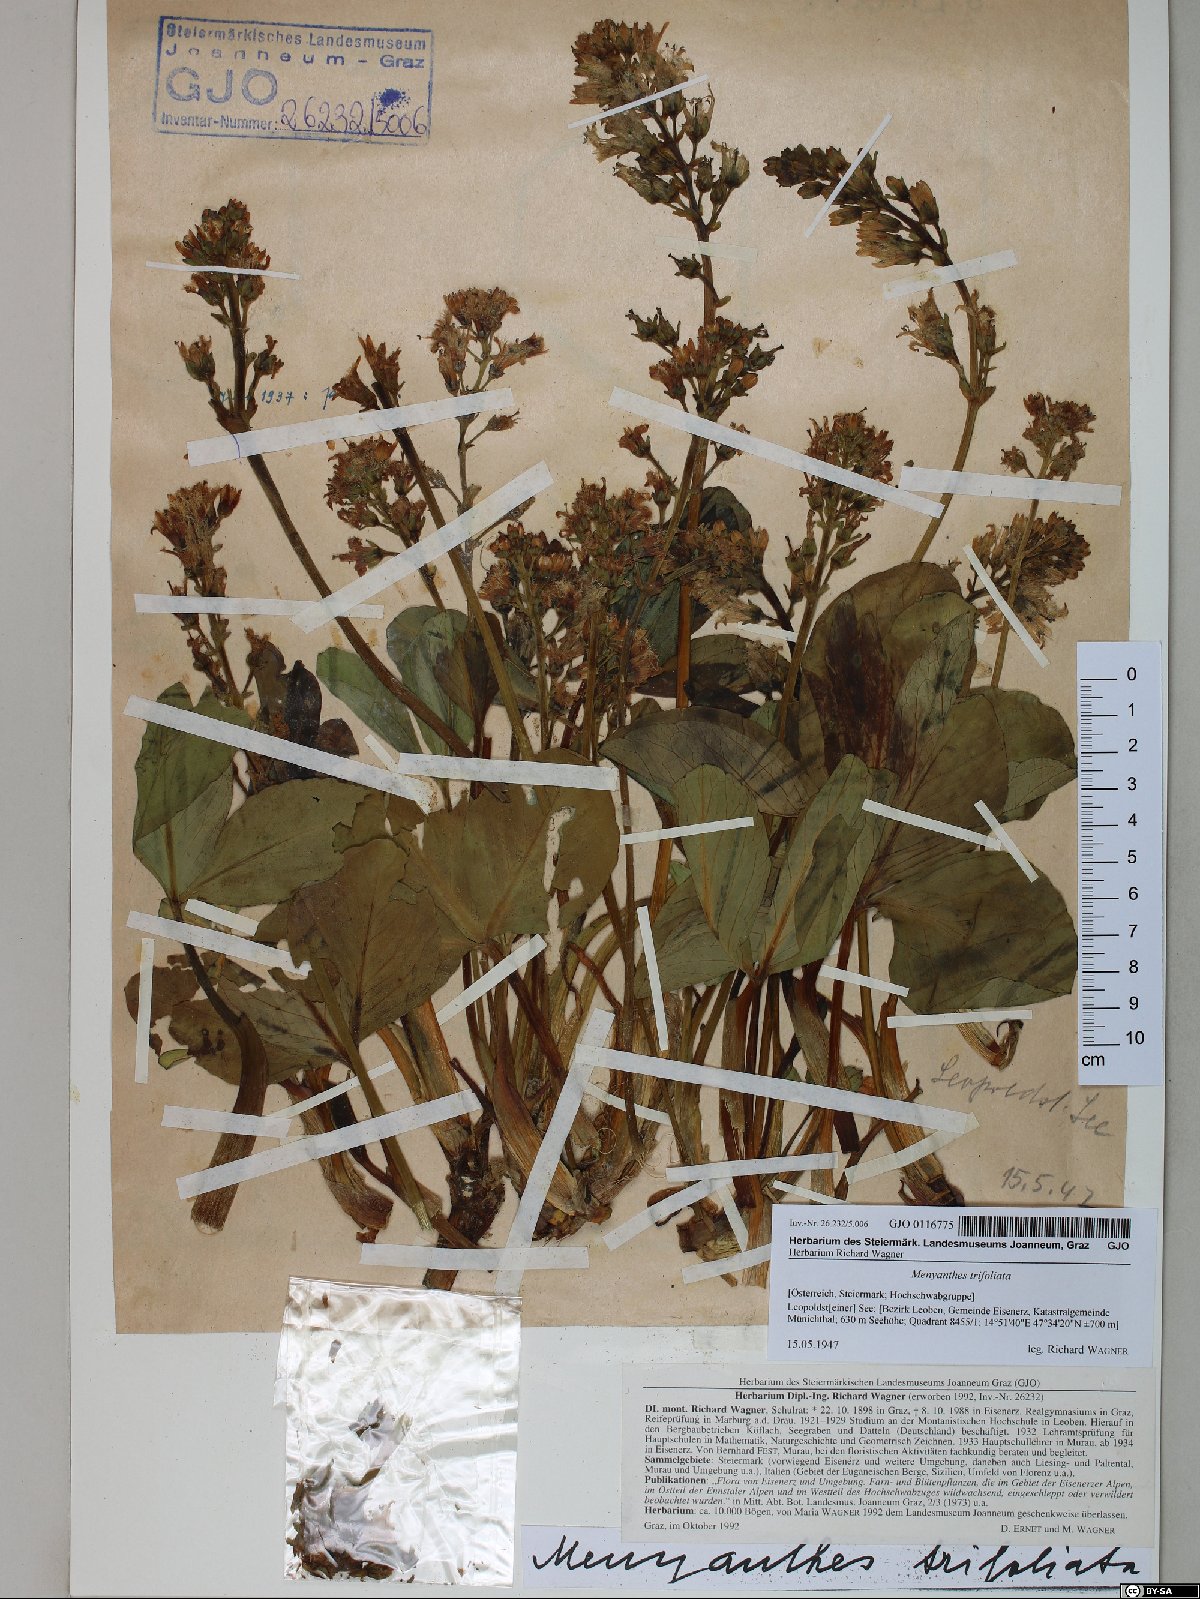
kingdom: Plantae
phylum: Tracheophyta
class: Magnoliopsida
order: Asterales
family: Menyanthaceae
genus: Menyanthes
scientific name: Menyanthes trifoliata
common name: Bogbean
